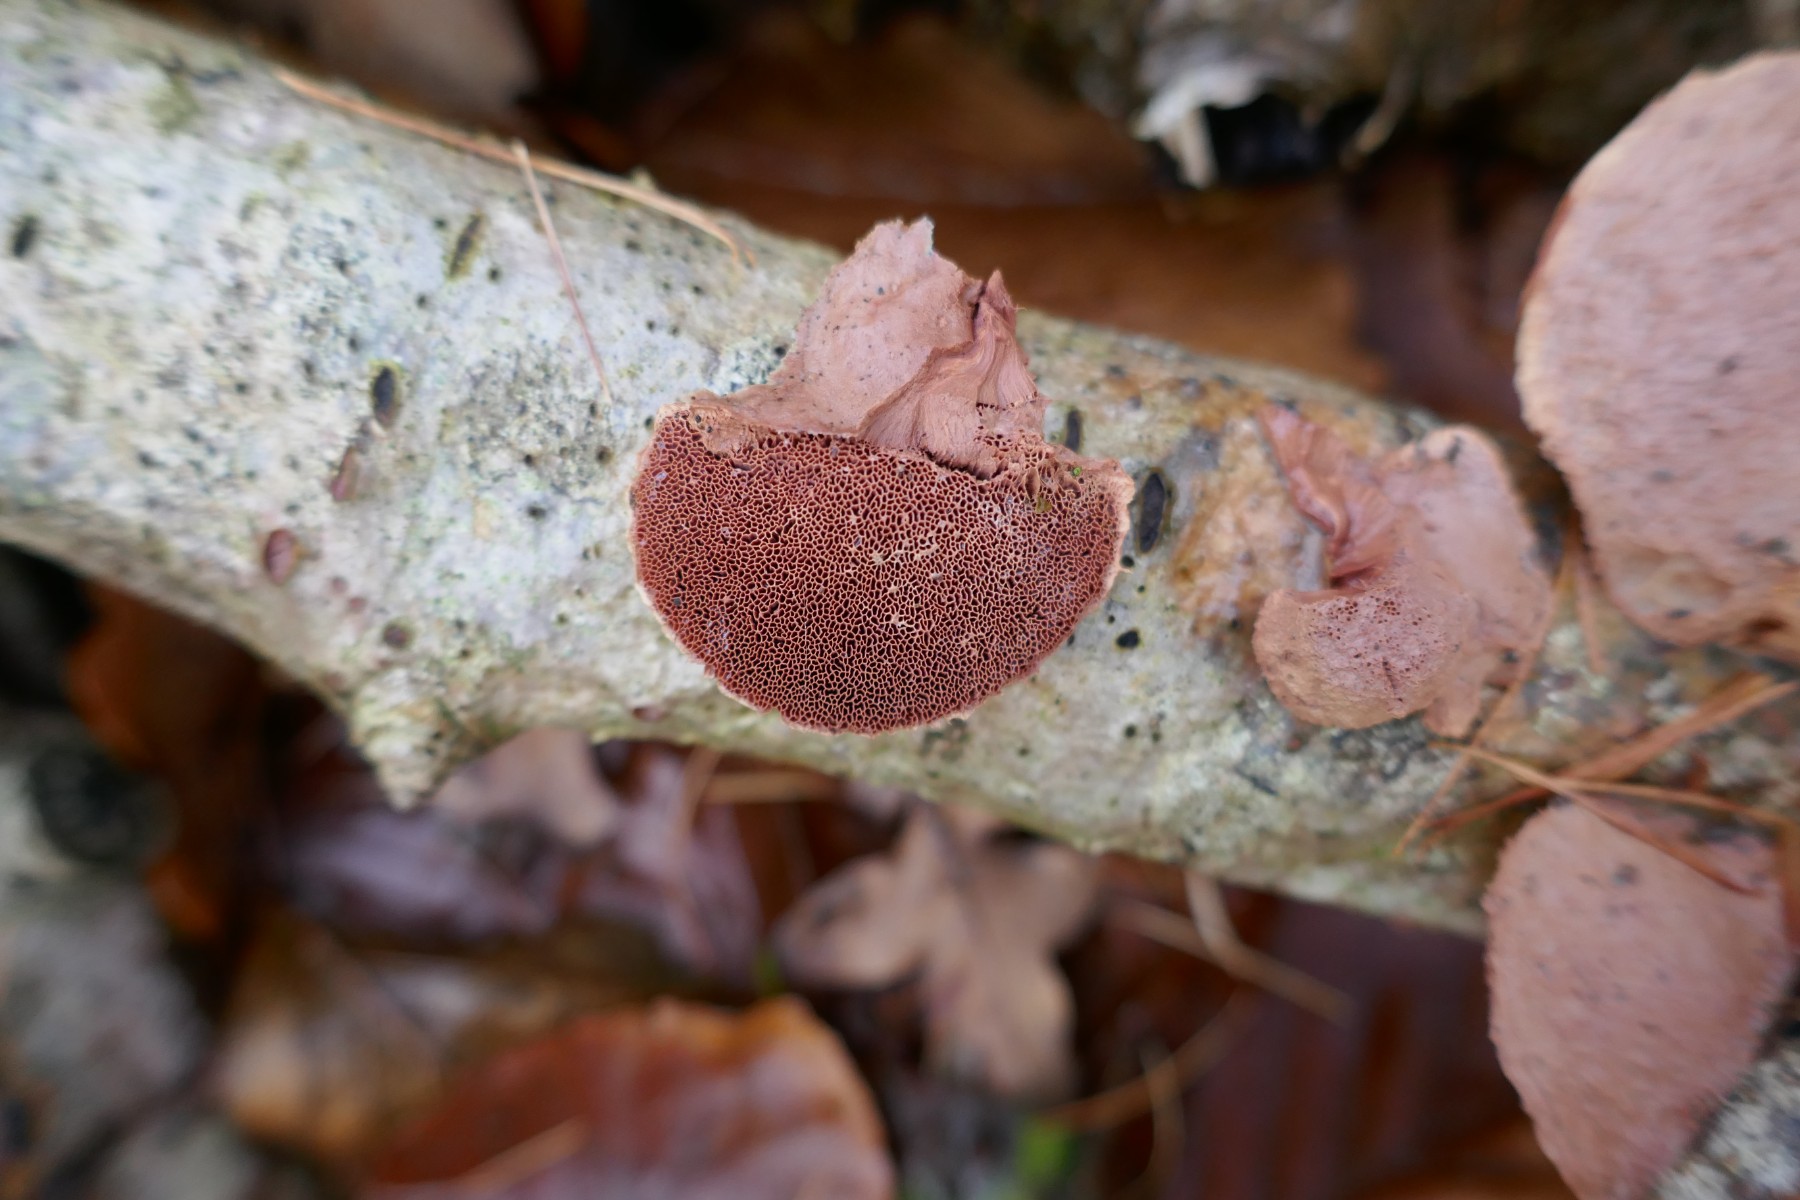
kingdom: Fungi
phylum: Basidiomycota
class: Agaricomycetes
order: Polyporales
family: Phanerochaetaceae
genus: Hapalopilus
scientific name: Hapalopilus rutilans
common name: rødlig okkerporesvamp
